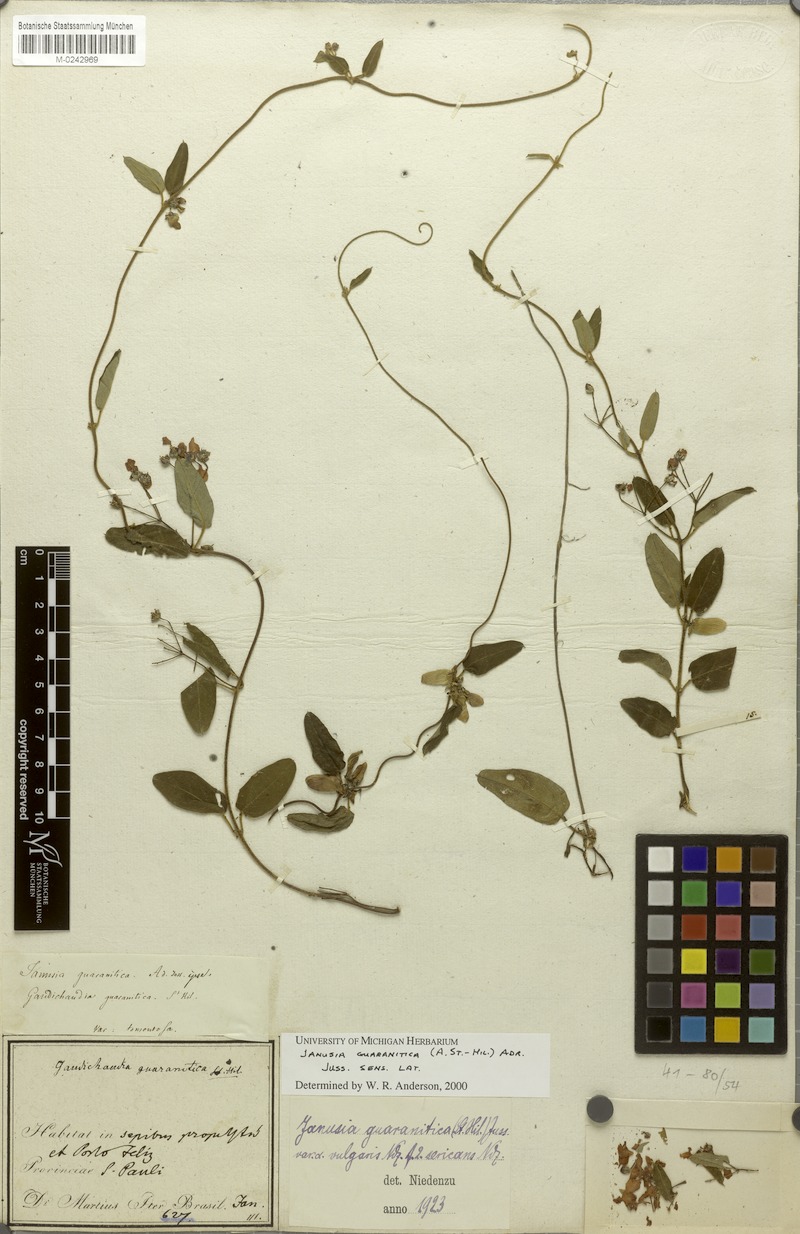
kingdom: Plantae
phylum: Tracheophyta
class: Magnoliopsida
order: Malpighiales
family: Malpighiaceae
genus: Janusia
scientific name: Janusia guaranitica
